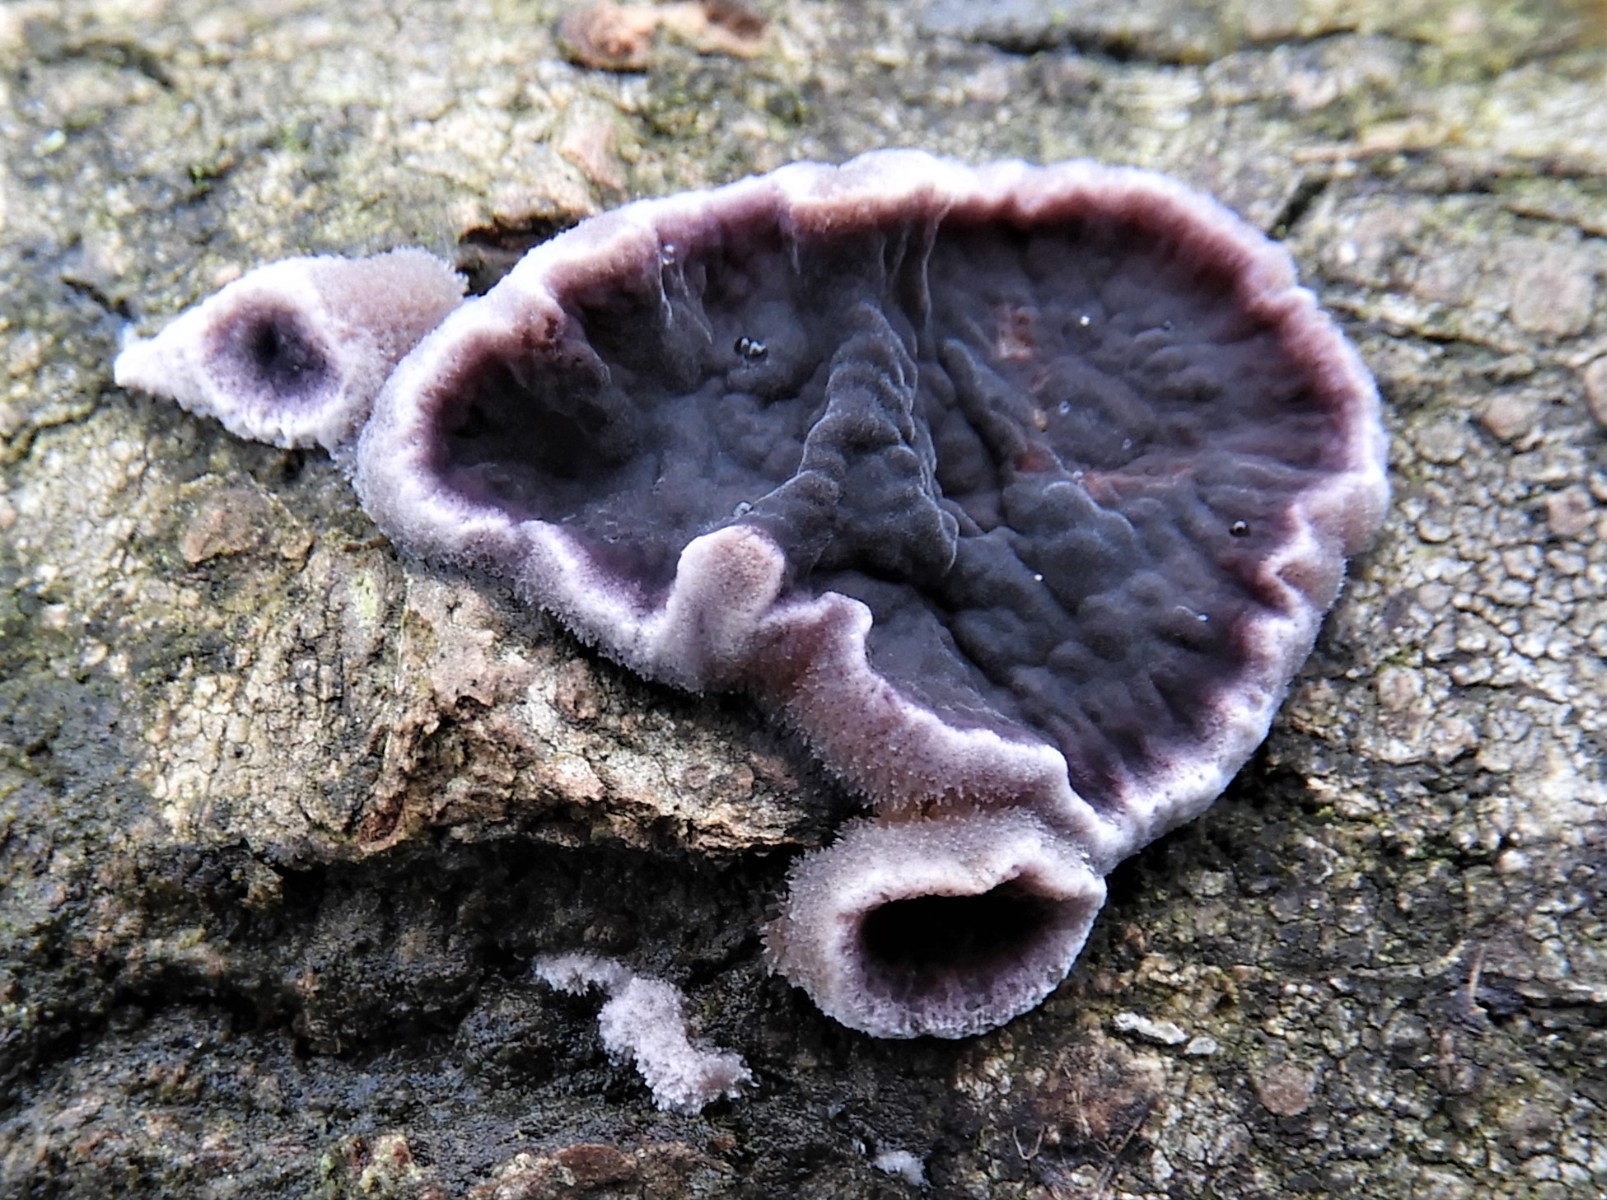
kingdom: Fungi
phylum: Basidiomycota
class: Agaricomycetes
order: Agaricales
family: Cyphellaceae
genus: Chondrostereum
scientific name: Chondrostereum purpureum
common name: purpurlædersvamp
